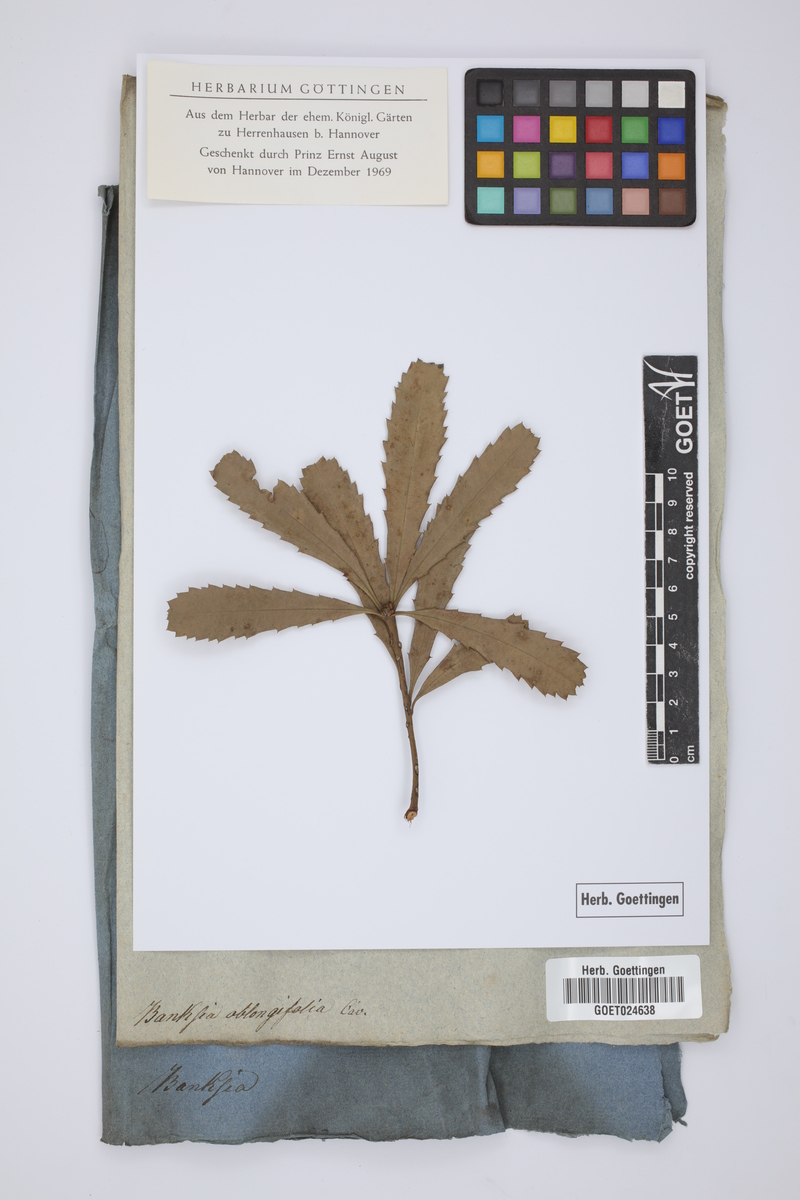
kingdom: Plantae
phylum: Tracheophyta
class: Magnoliopsida
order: Proteales
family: Proteaceae
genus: Banksia
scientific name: Banksia oblongifolia
